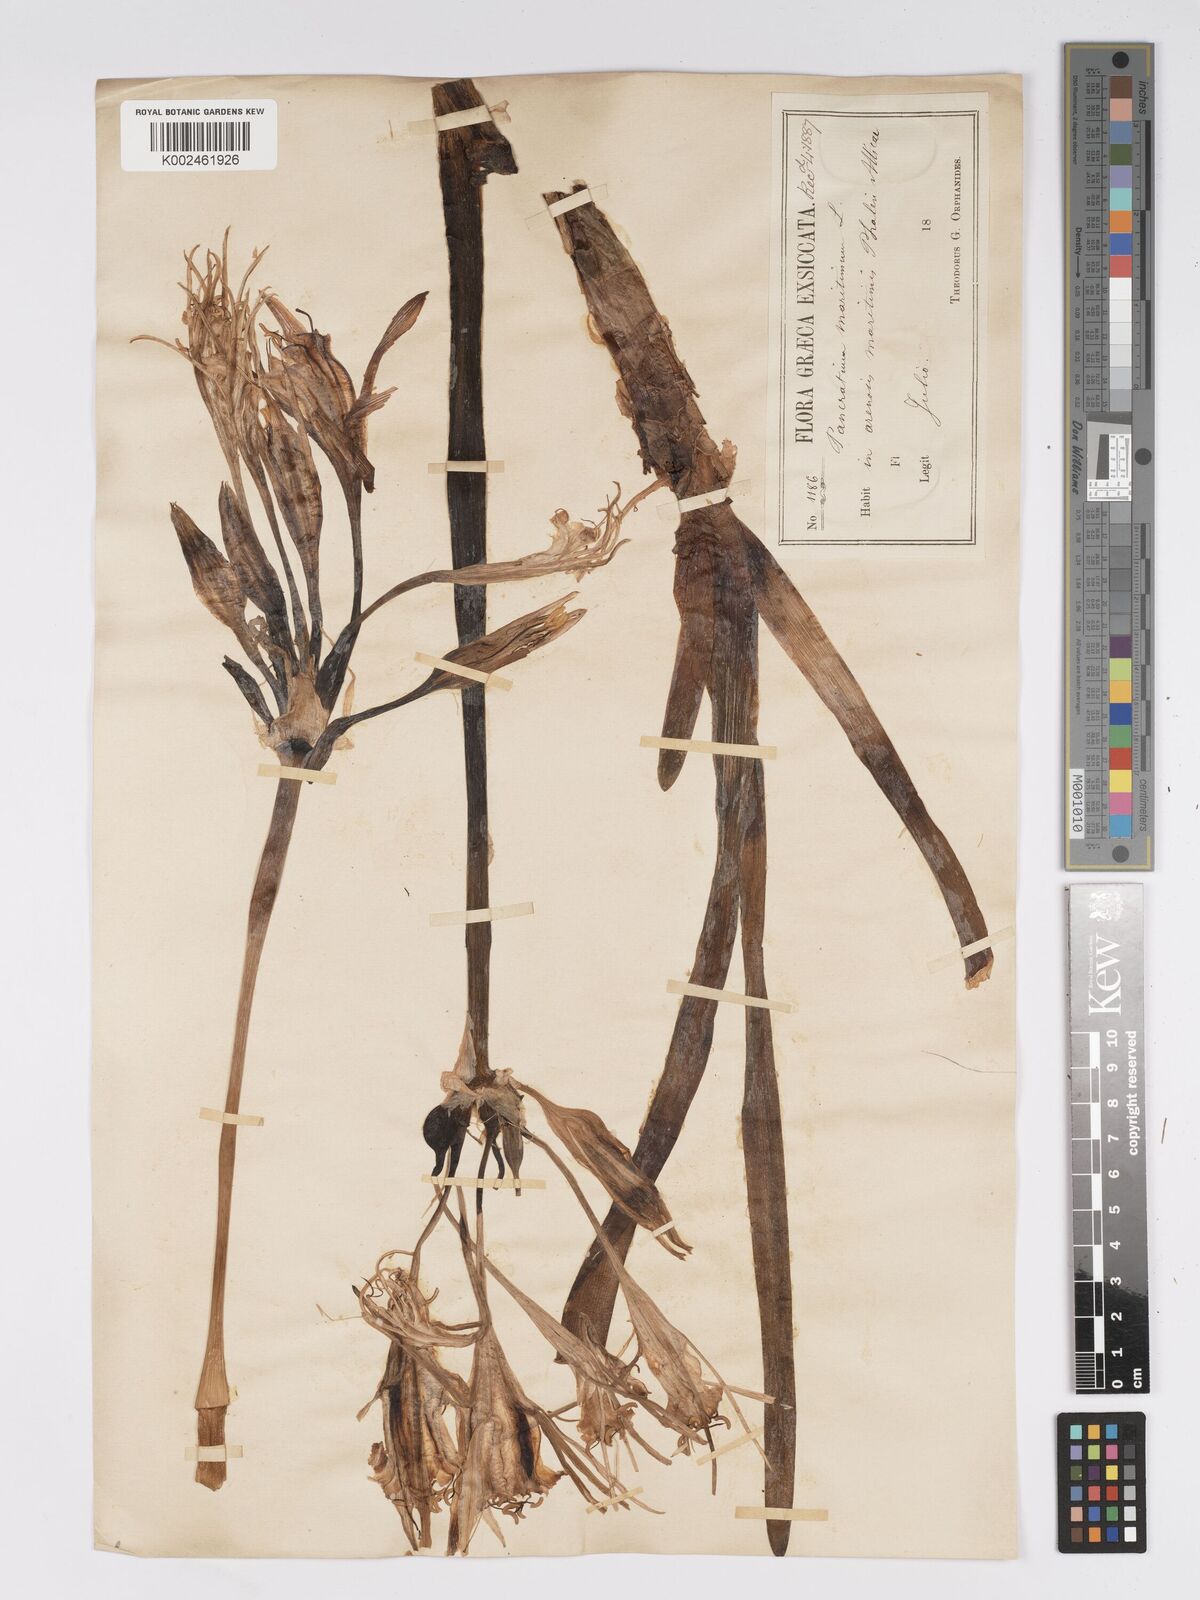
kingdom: Plantae
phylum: Tracheophyta
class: Liliopsida
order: Asparagales
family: Amaryllidaceae
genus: Pancratium
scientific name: Pancratium maritimum
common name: Sea-daffodil
